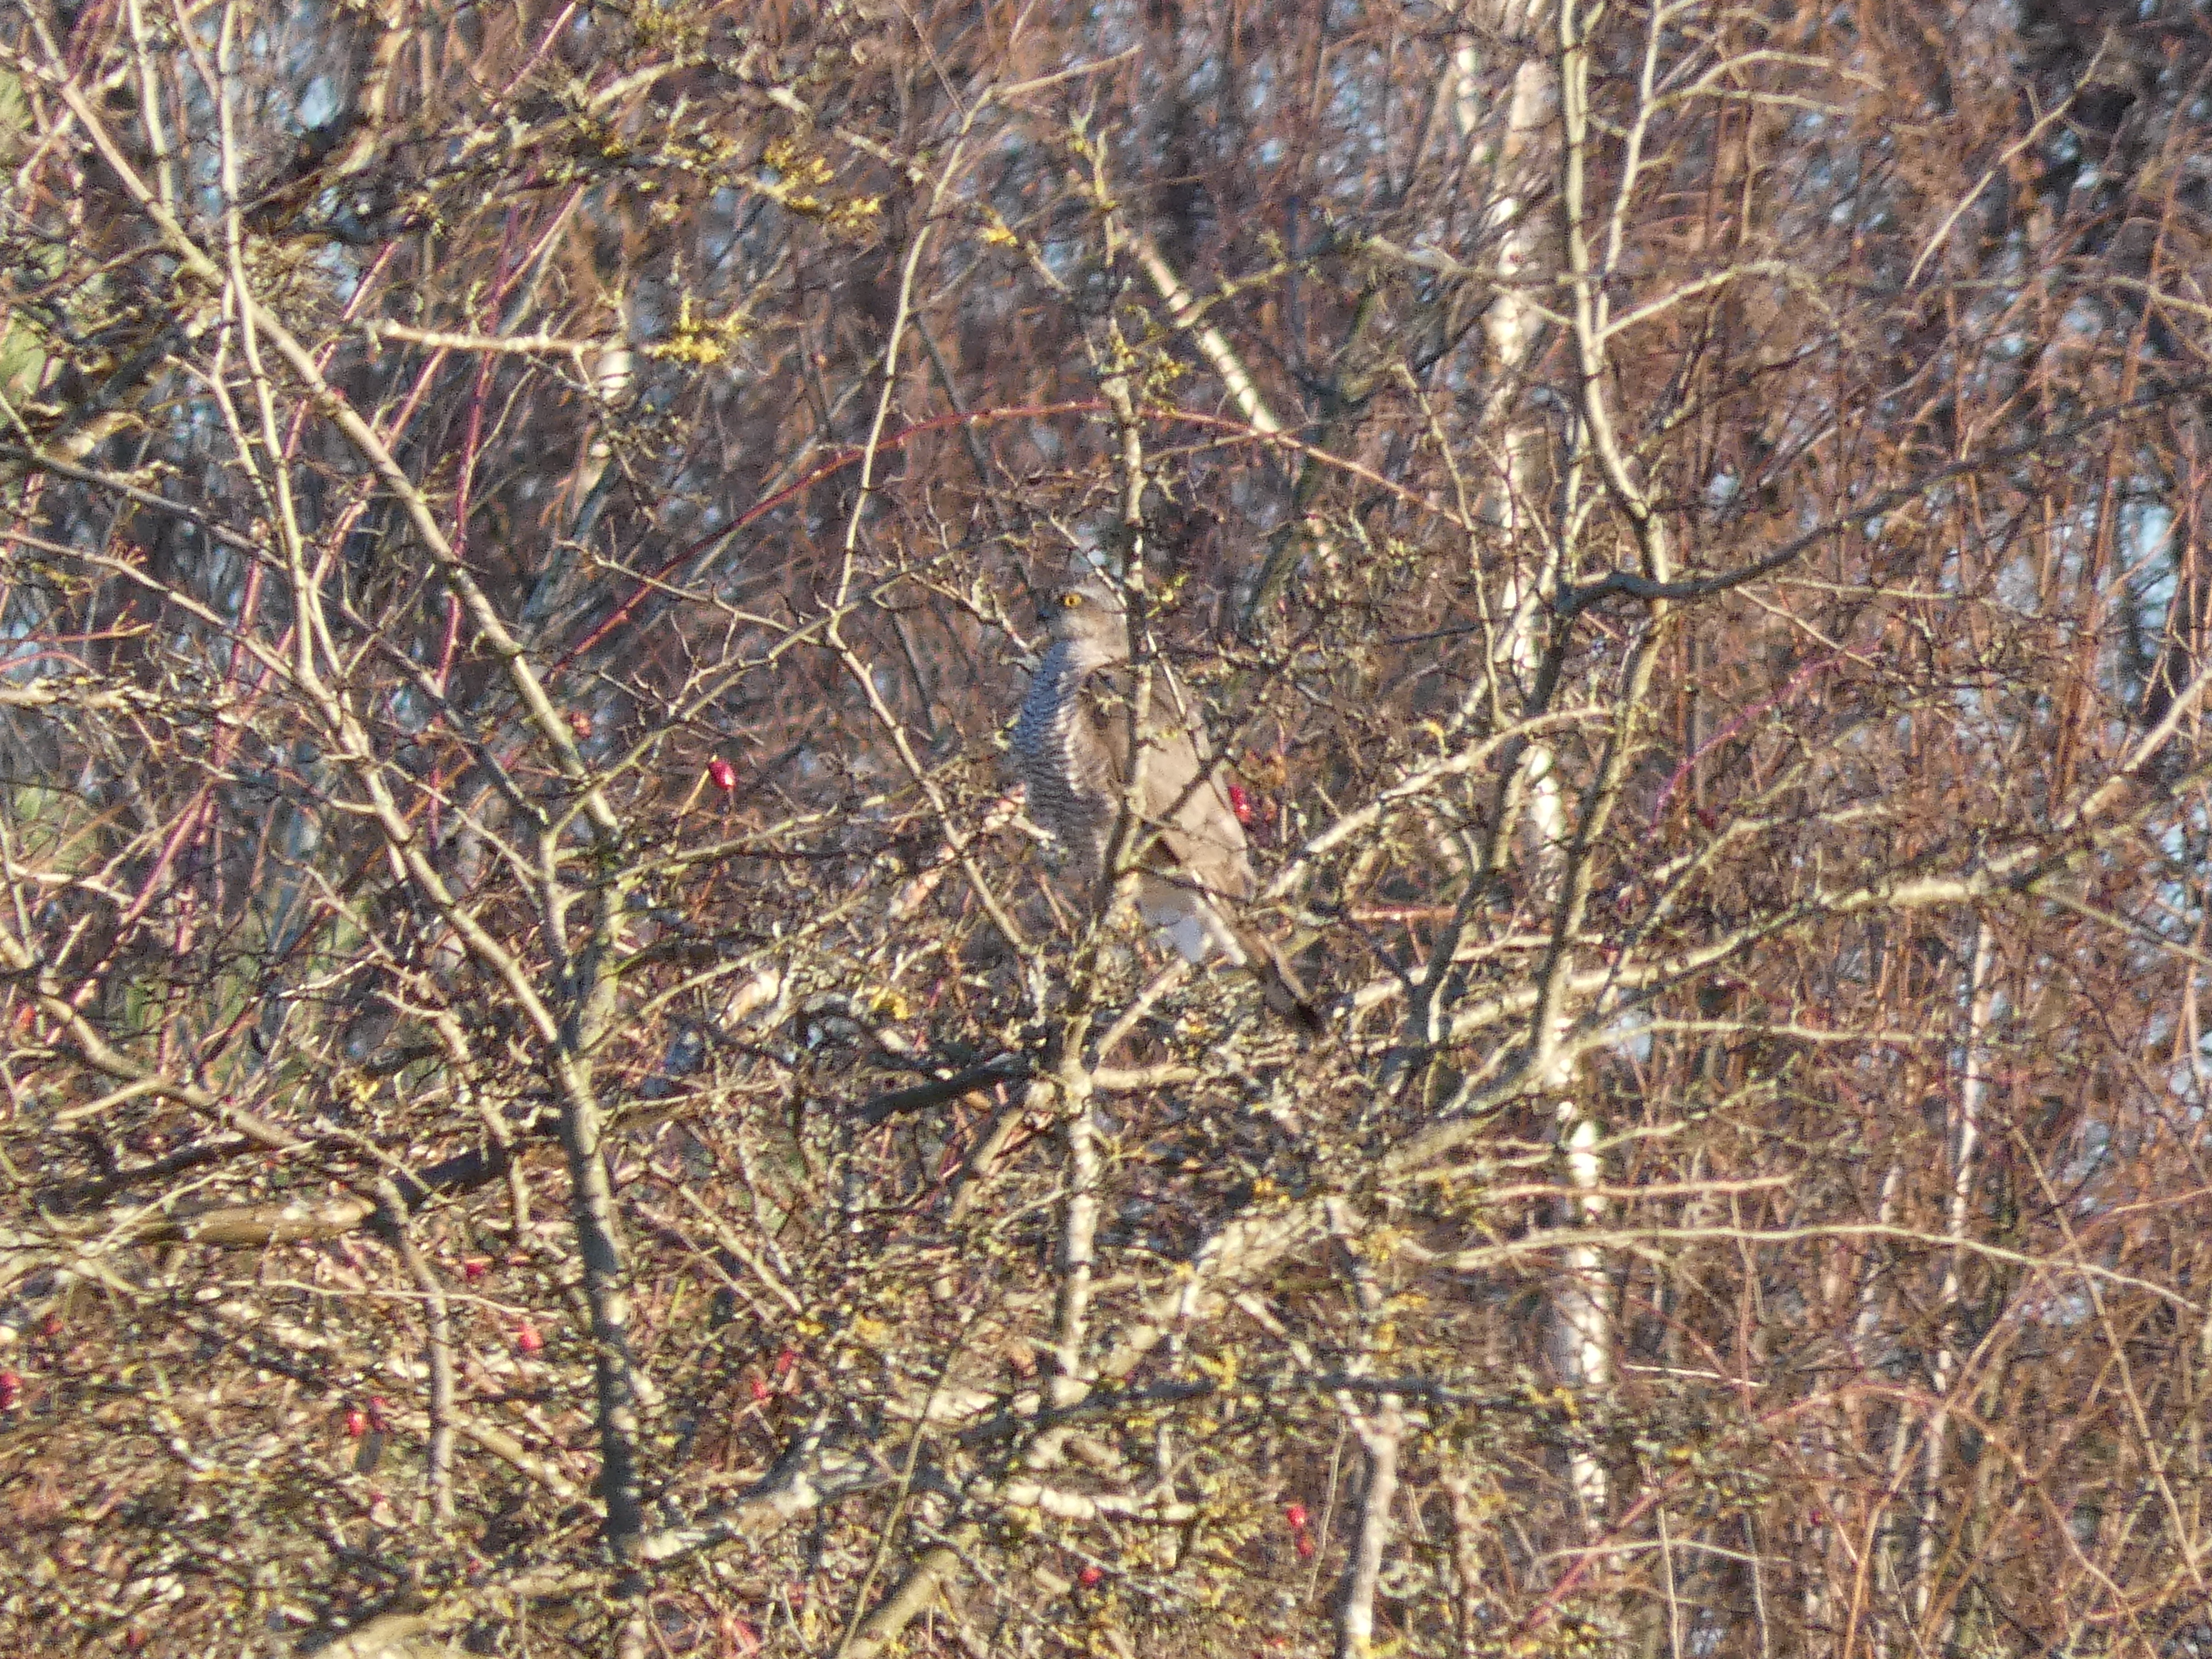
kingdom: Animalia
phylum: Chordata
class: Aves
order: Accipitriformes
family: Accipitridae
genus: Accipiter
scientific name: Accipiter nisus
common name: Spurvehøg
